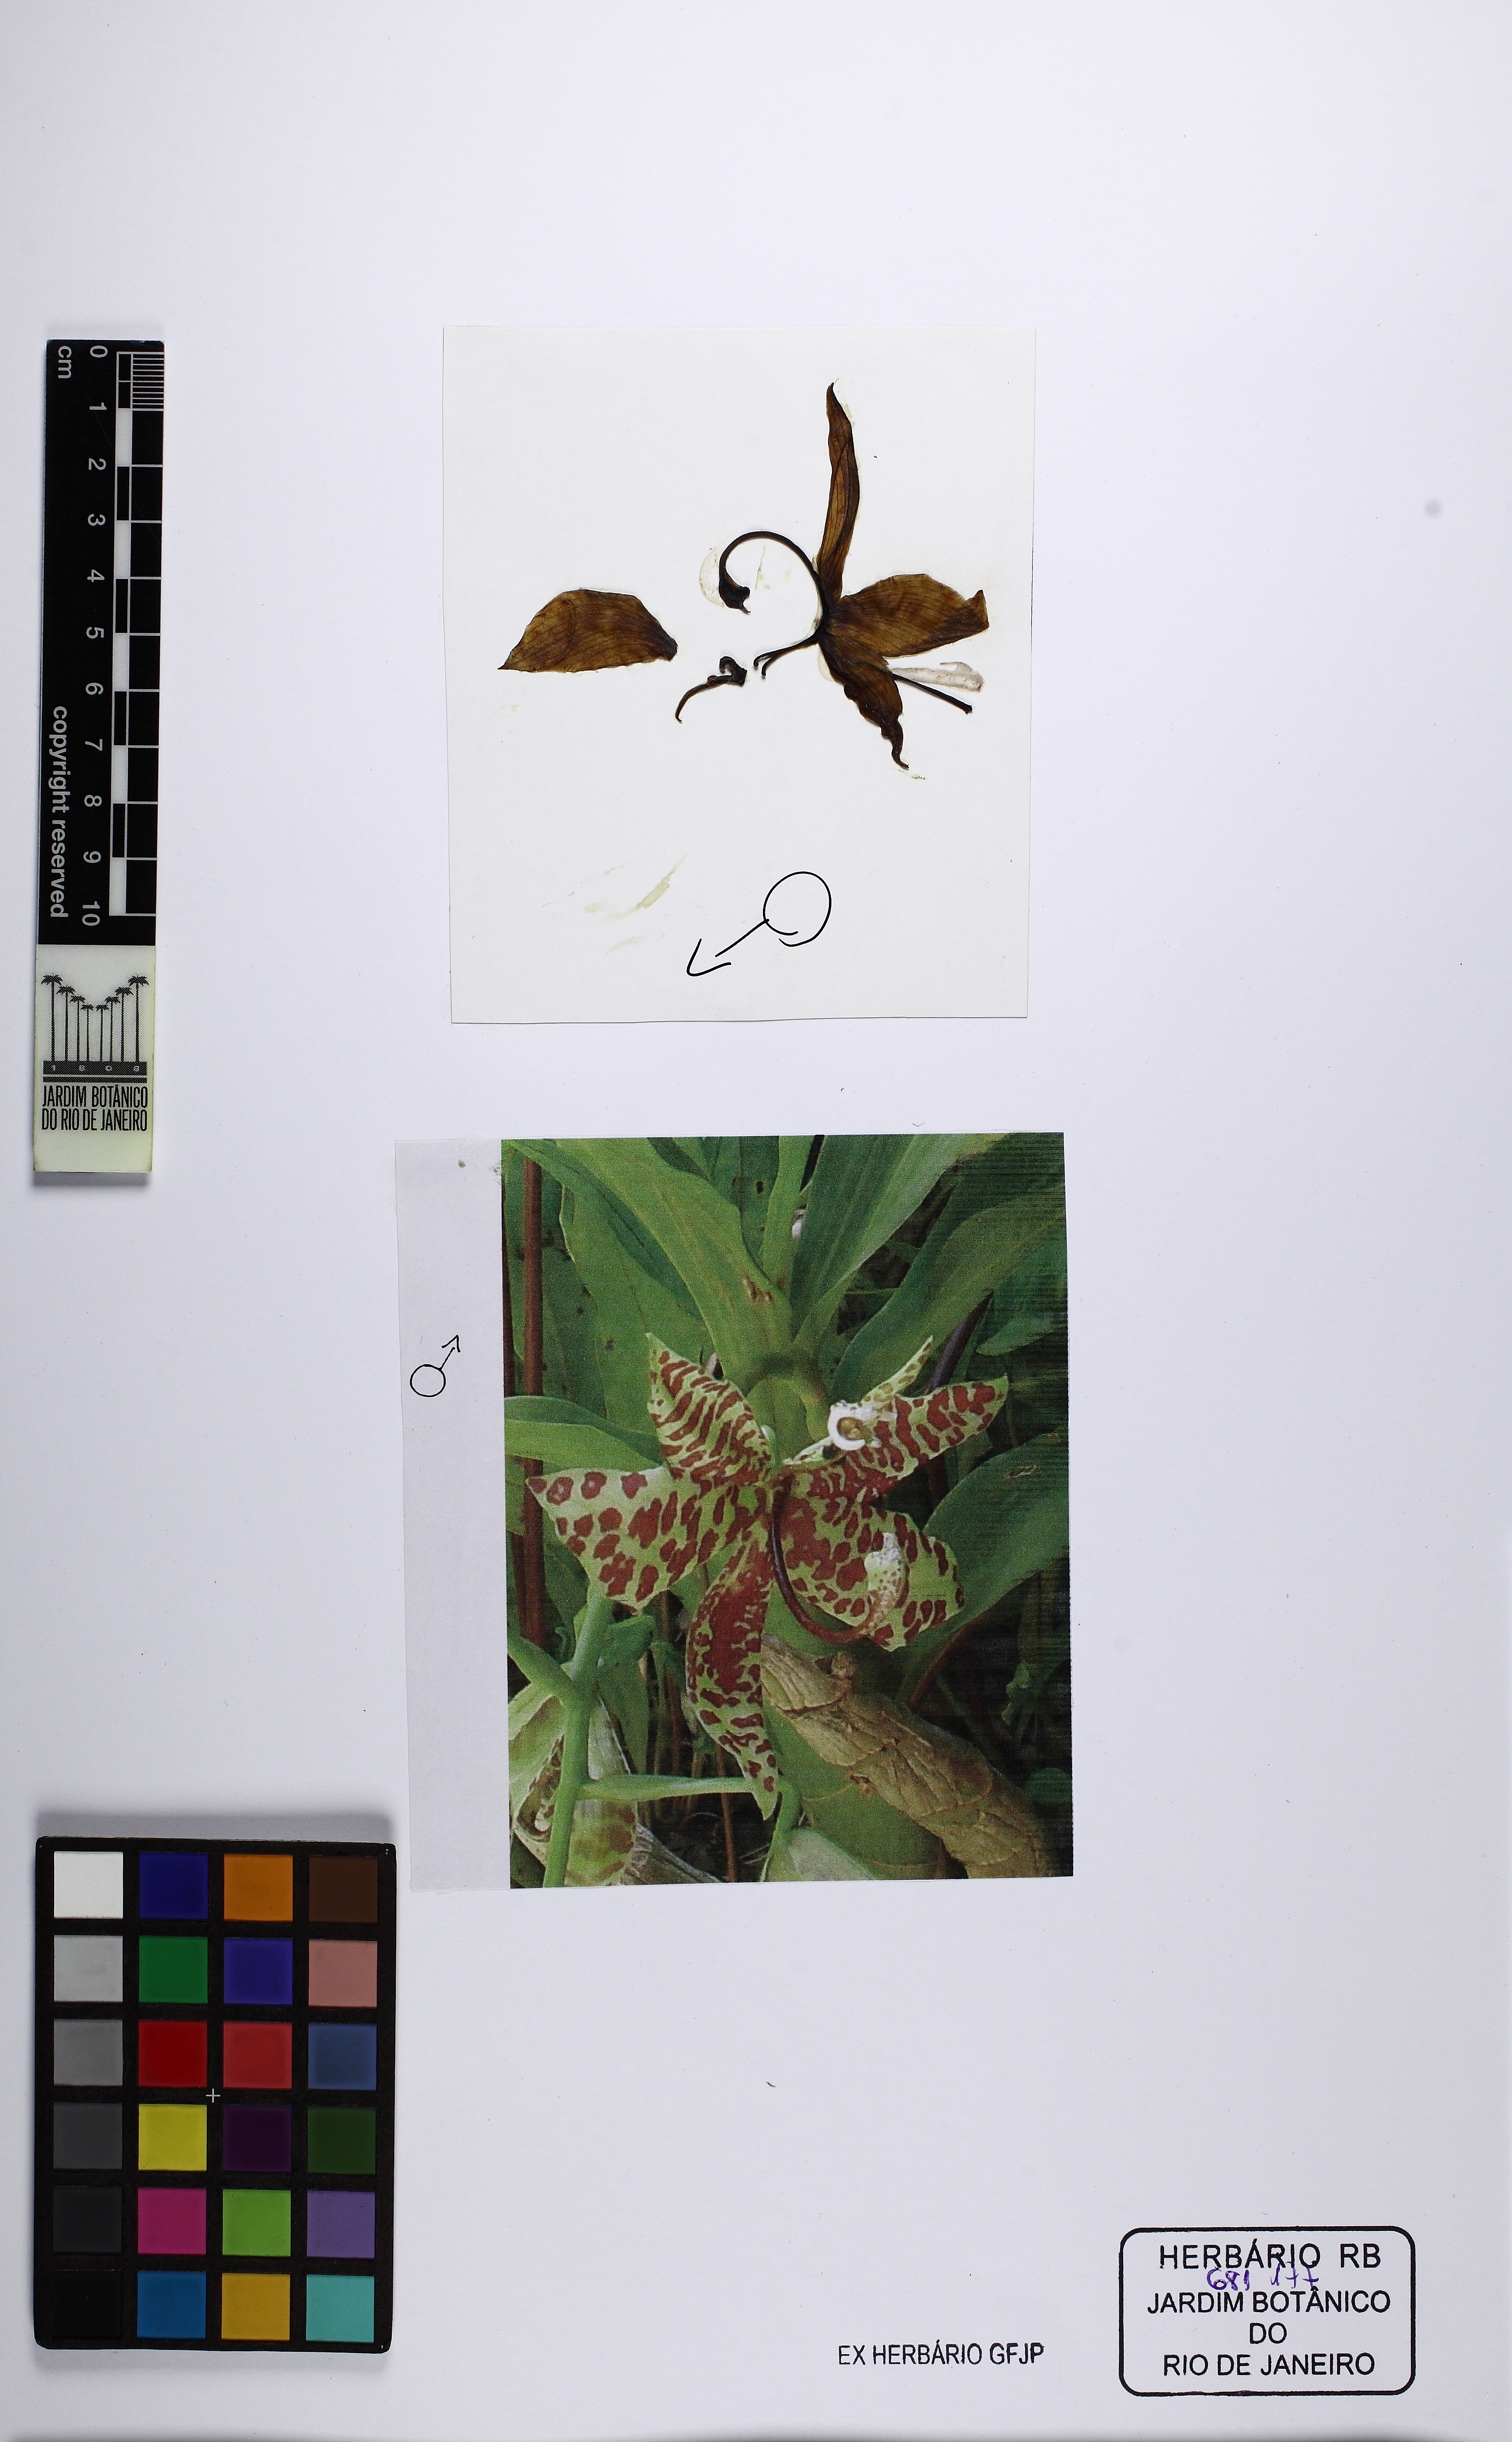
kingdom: Plantae
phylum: Tracheophyta
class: Liliopsida
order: Asparagales
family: Orchidaceae
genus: Cycnoches
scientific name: Cycnoches pentadactylon
